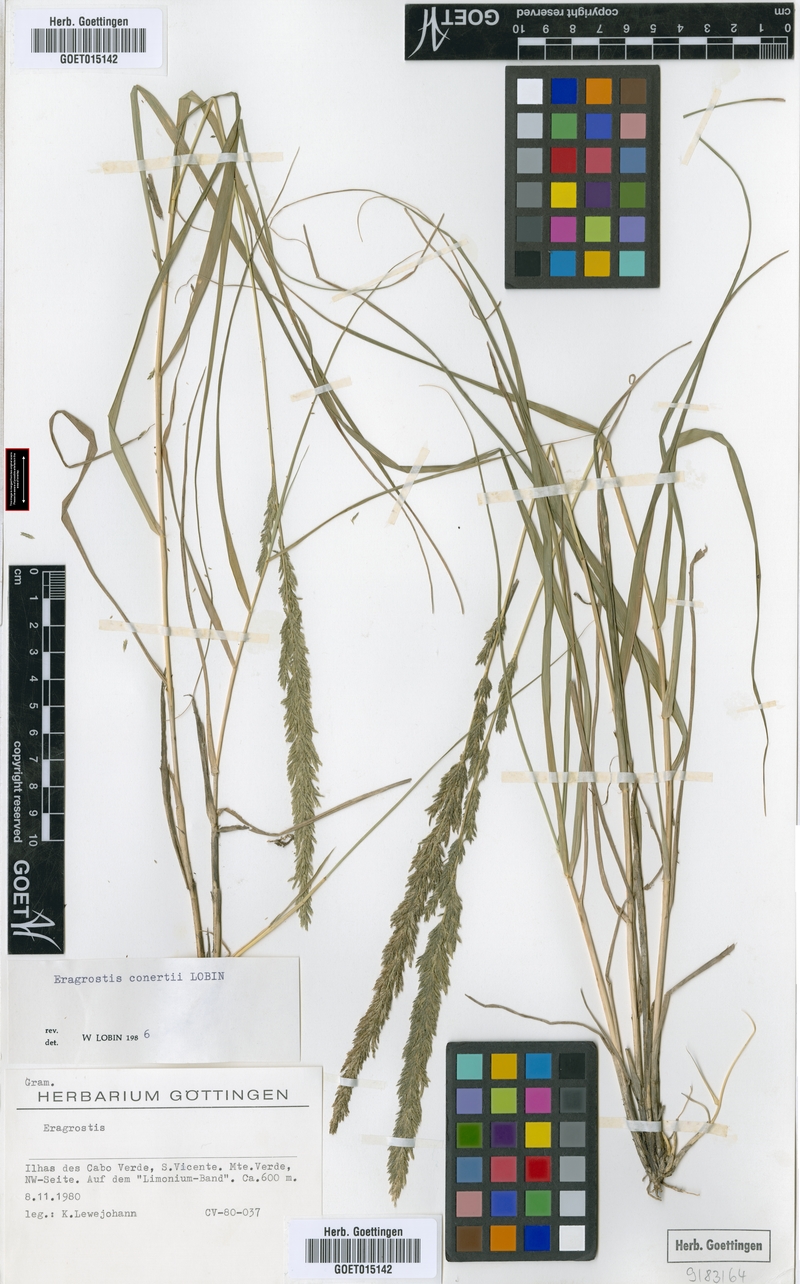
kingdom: Plantae
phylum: Tracheophyta
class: Liliopsida
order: Poales
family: Poaceae
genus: Eragrostis
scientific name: Eragrostis conertii
